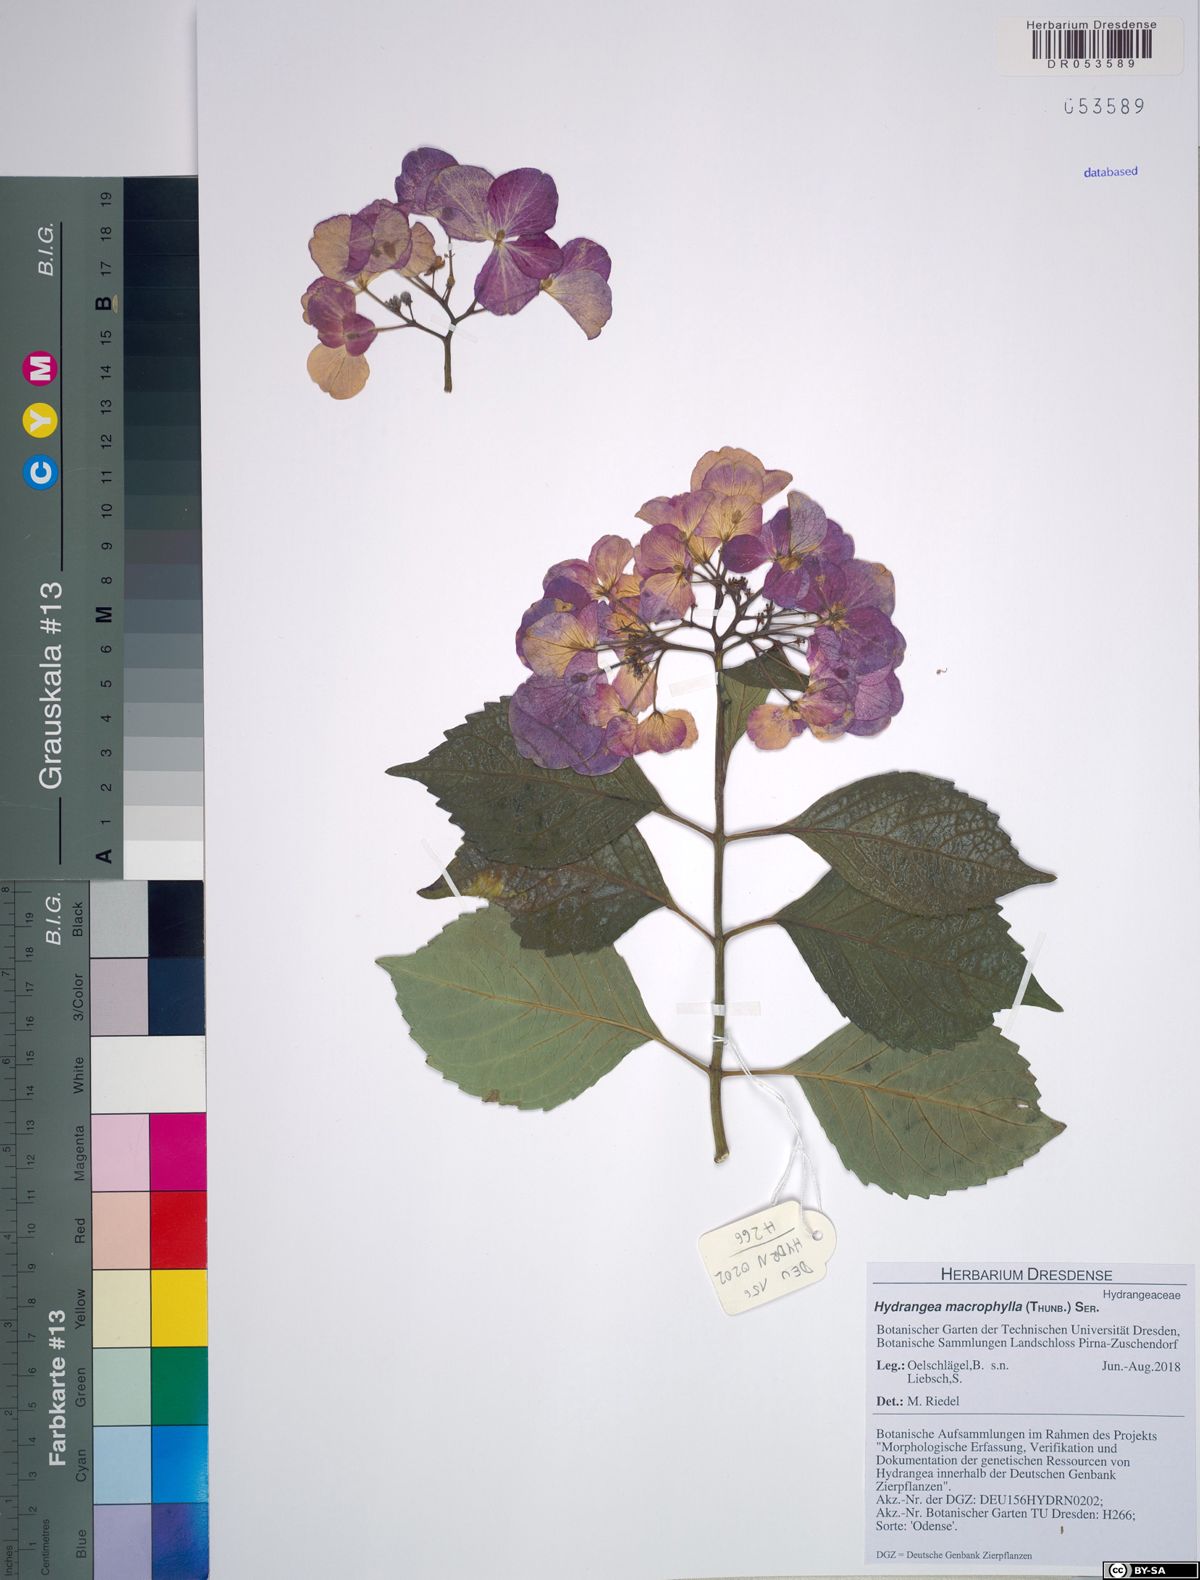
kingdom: Plantae
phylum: Tracheophyta
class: Magnoliopsida
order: Cornales
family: Hydrangeaceae
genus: Hydrangea
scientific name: Hydrangea macrophylla
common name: Hydrangea
